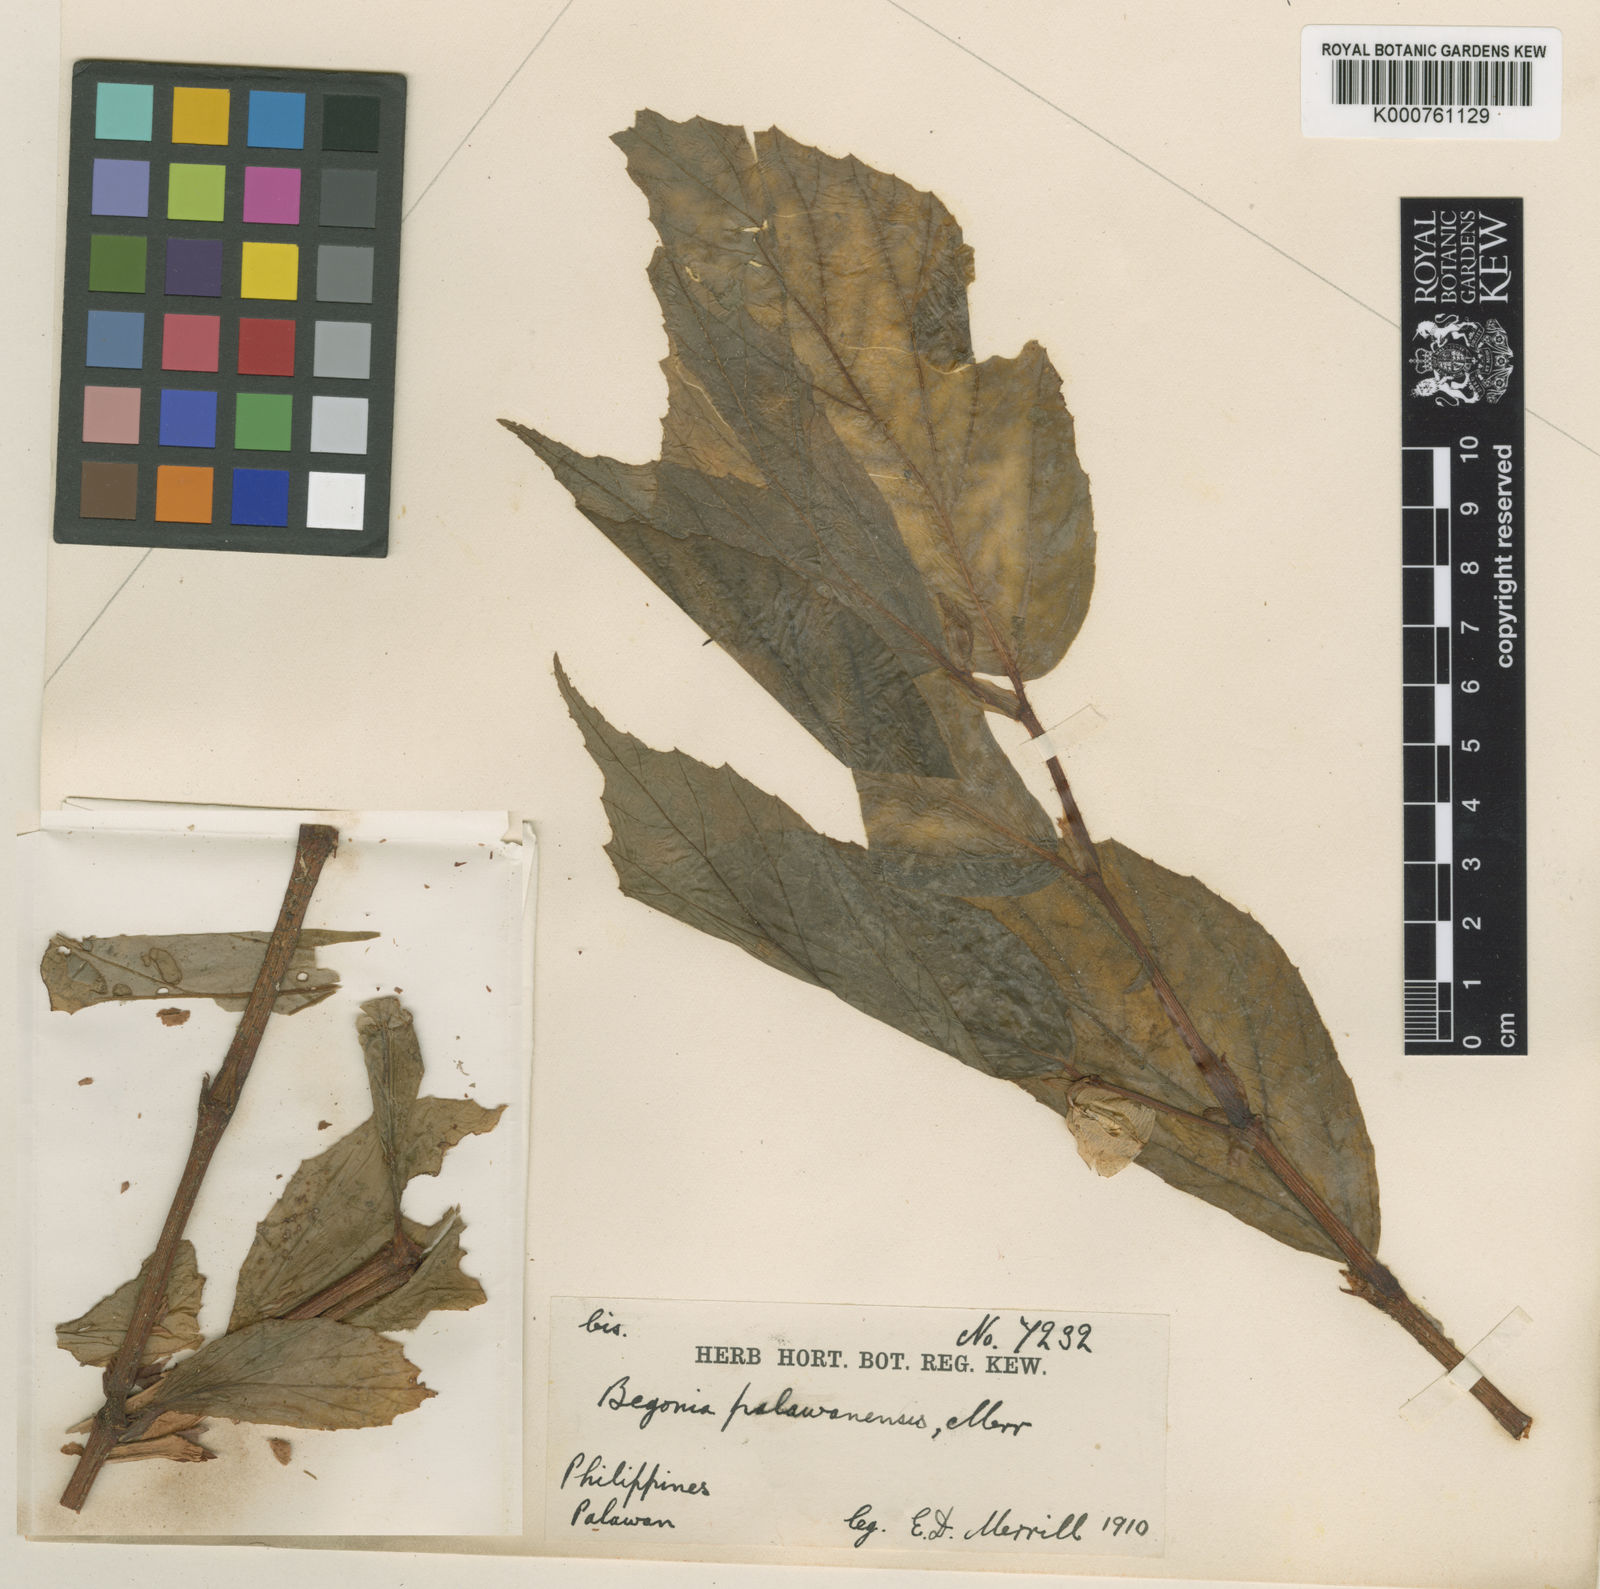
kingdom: Plantae
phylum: Tracheophyta
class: Magnoliopsida
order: Cucurbitales
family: Begoniaceae
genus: Begonia
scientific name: Begonia palawanensis
